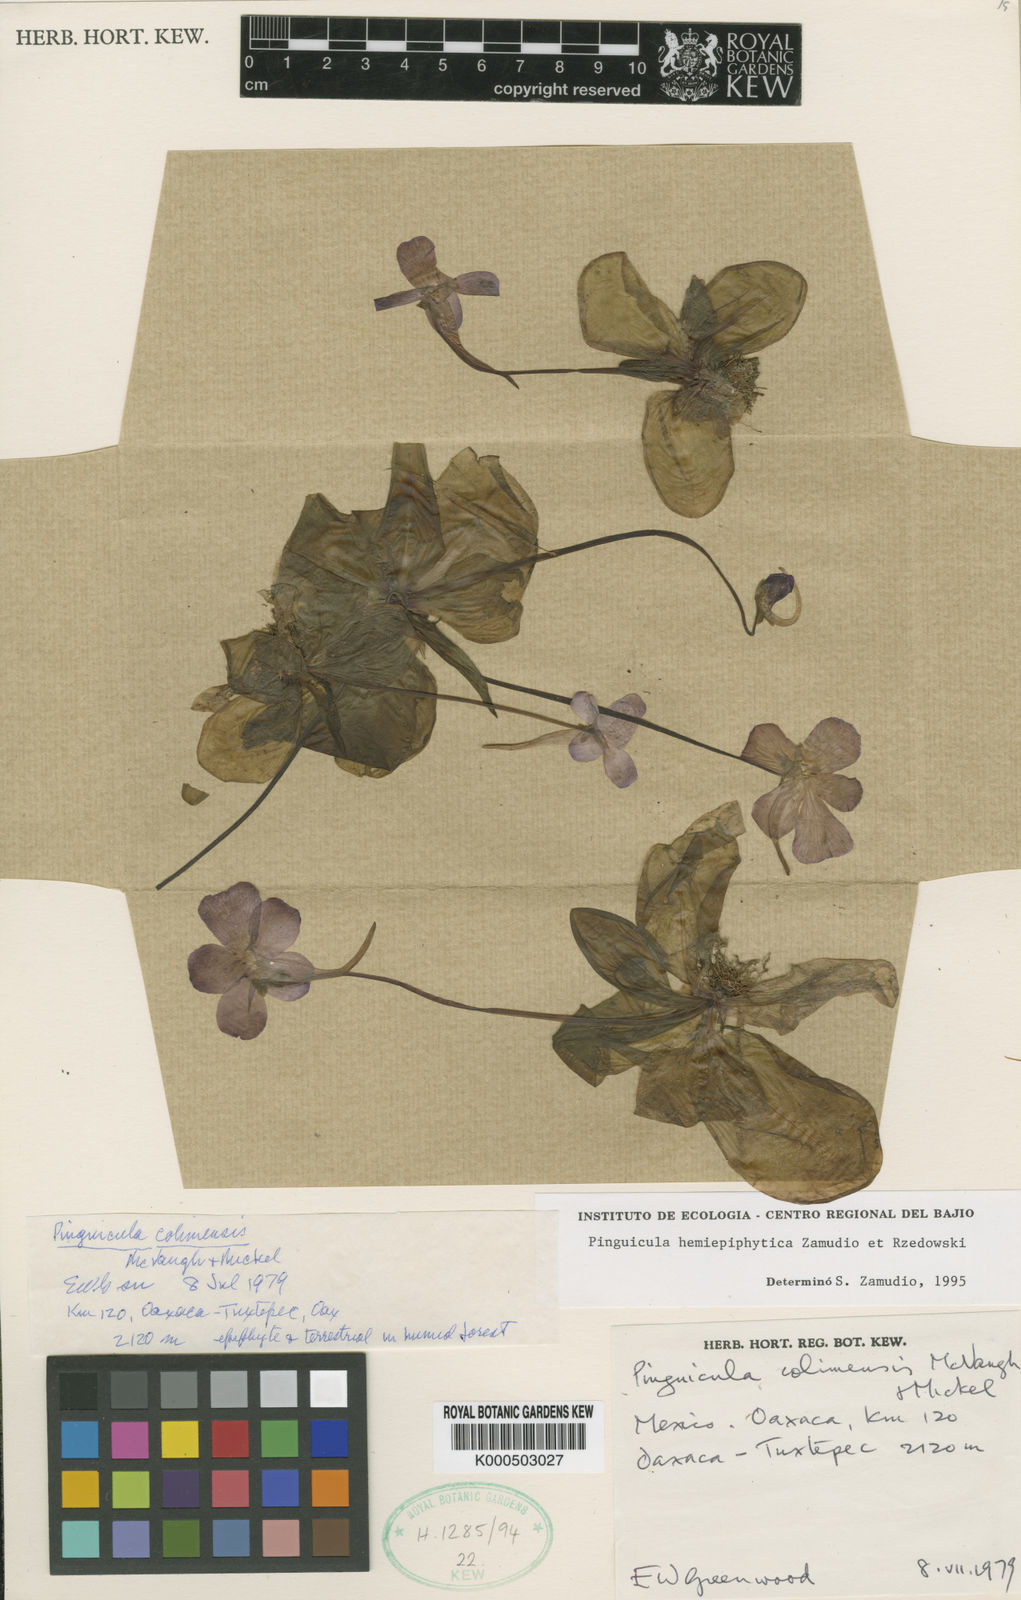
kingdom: Plantae
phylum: Tracheophyta
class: Magnoliopsida
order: Lamiales
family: Lentibulariaceae
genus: Pinguicula
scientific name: Pinguicula hemiepiphytica
